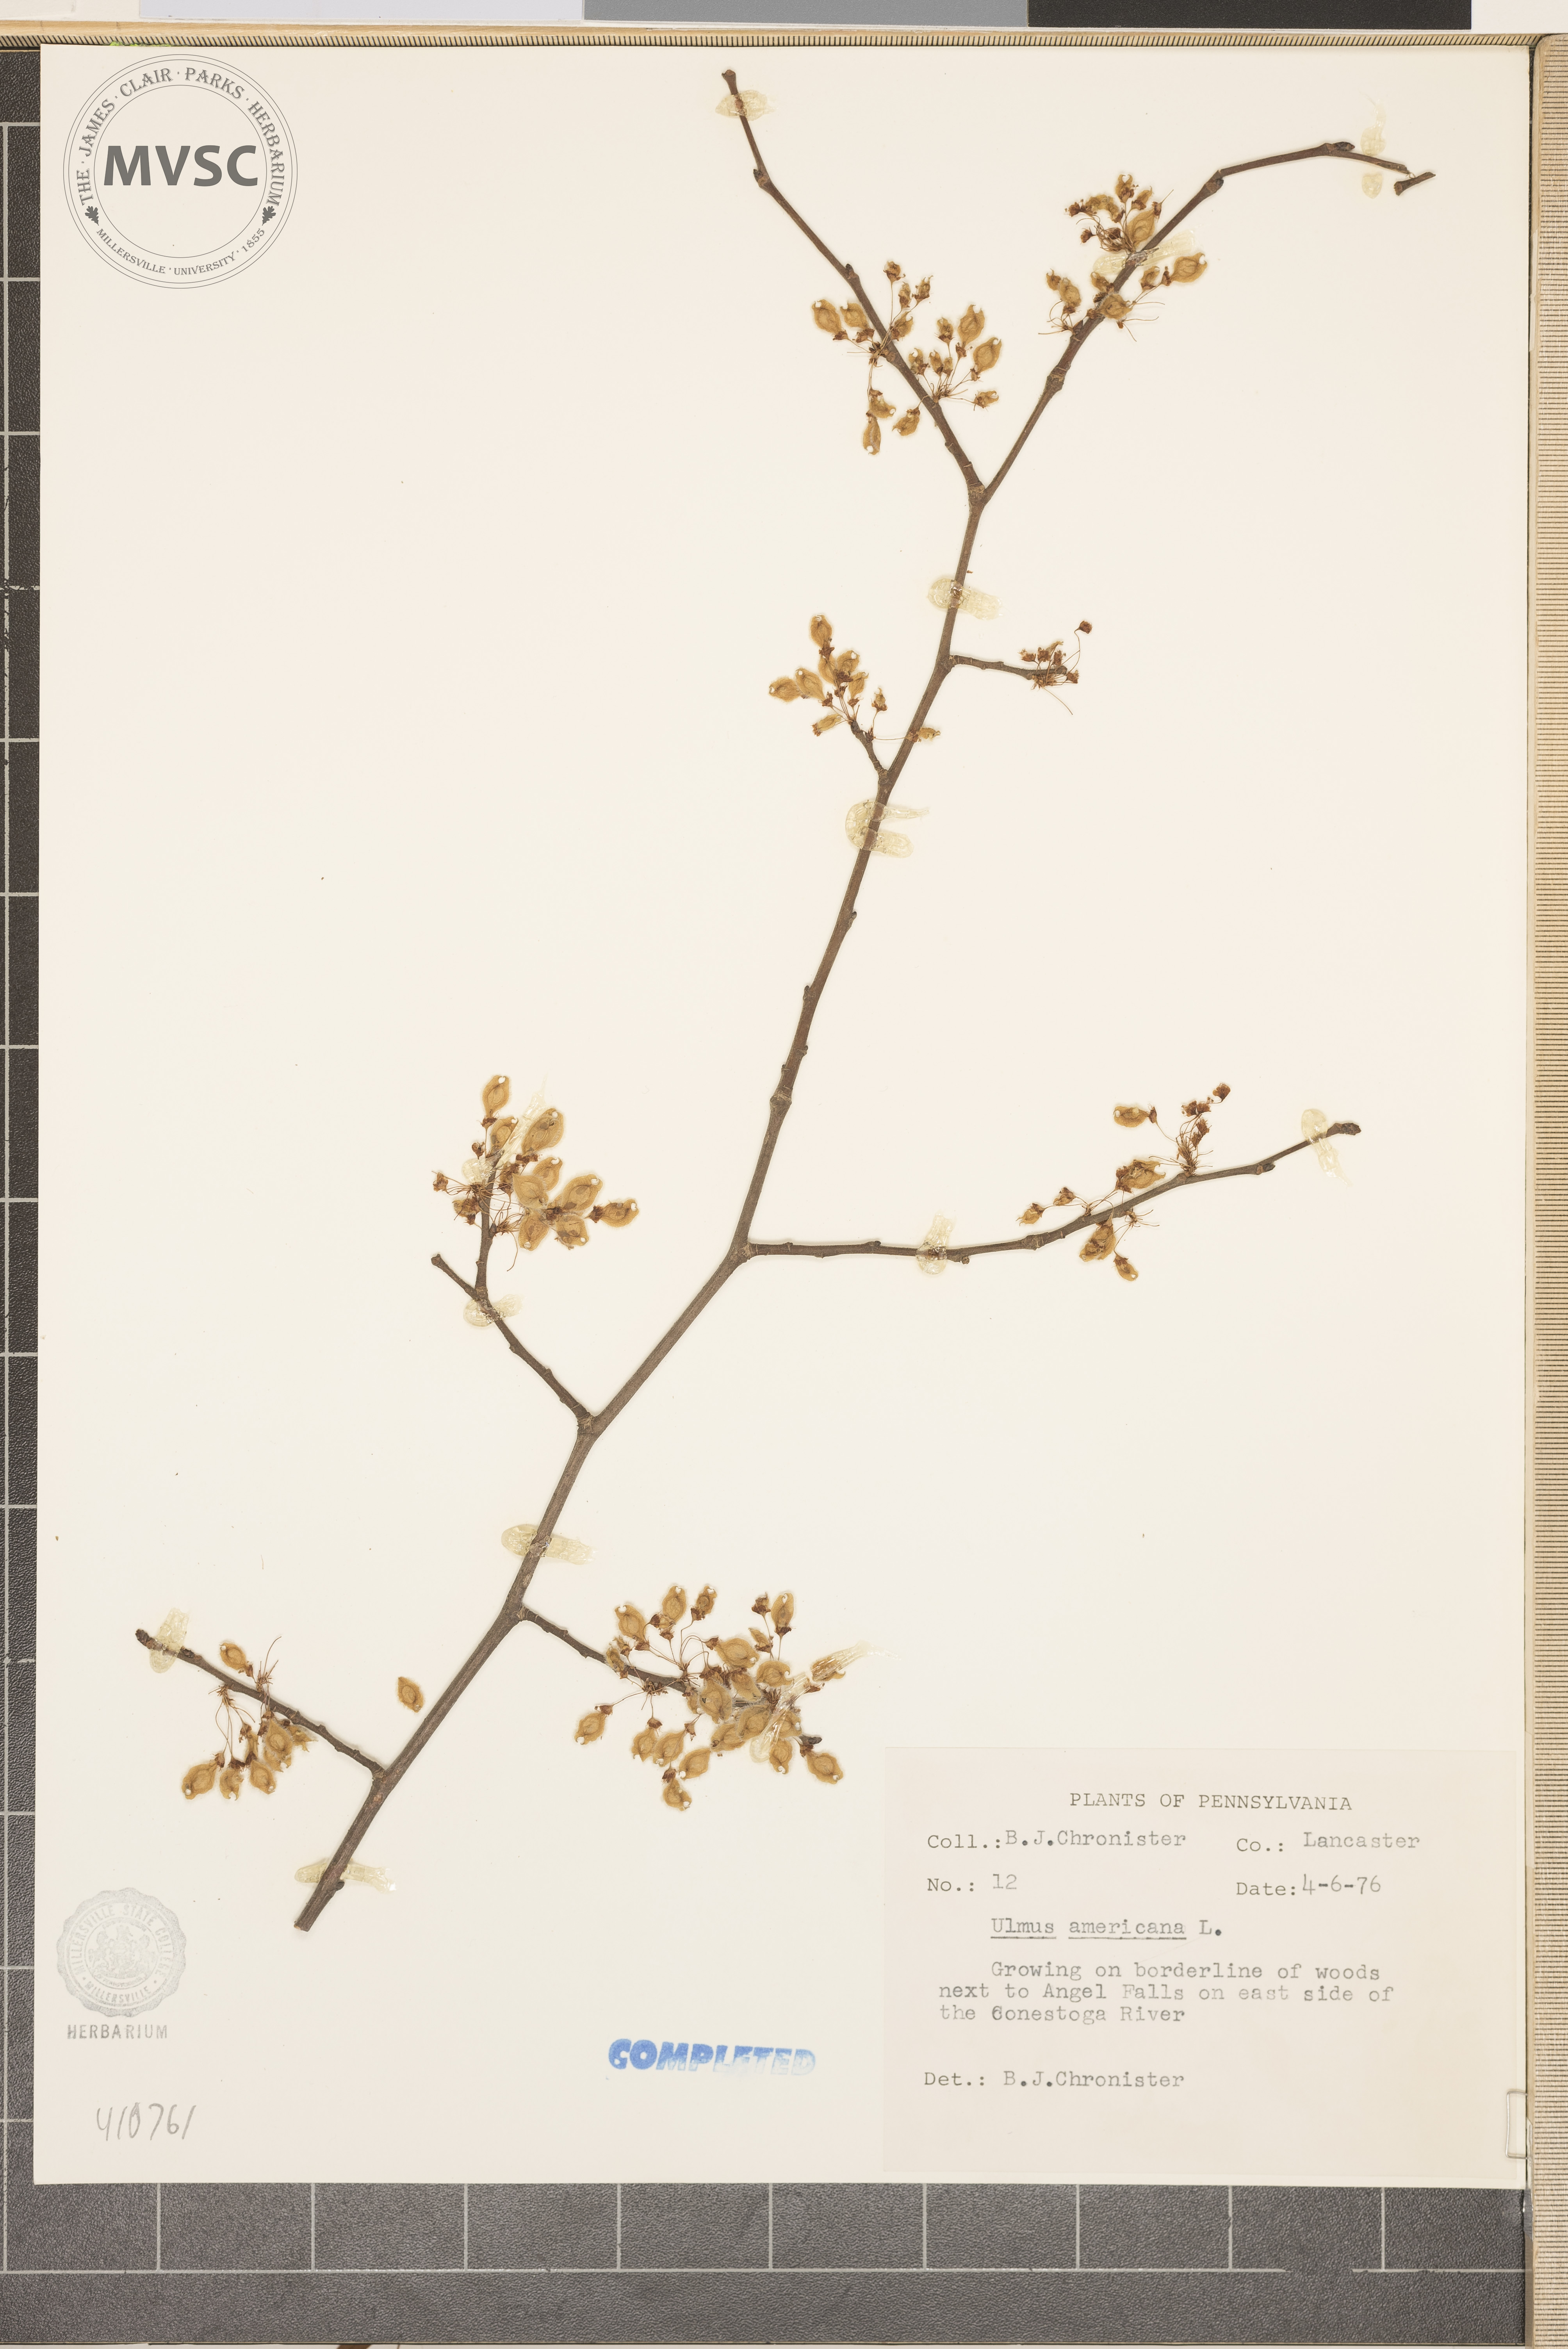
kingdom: Plantae
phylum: Tracheophyta
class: Magnoliopsida
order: Rosales
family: Ulmaceae
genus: Ulmus
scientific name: Ulmus americana
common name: American elm
